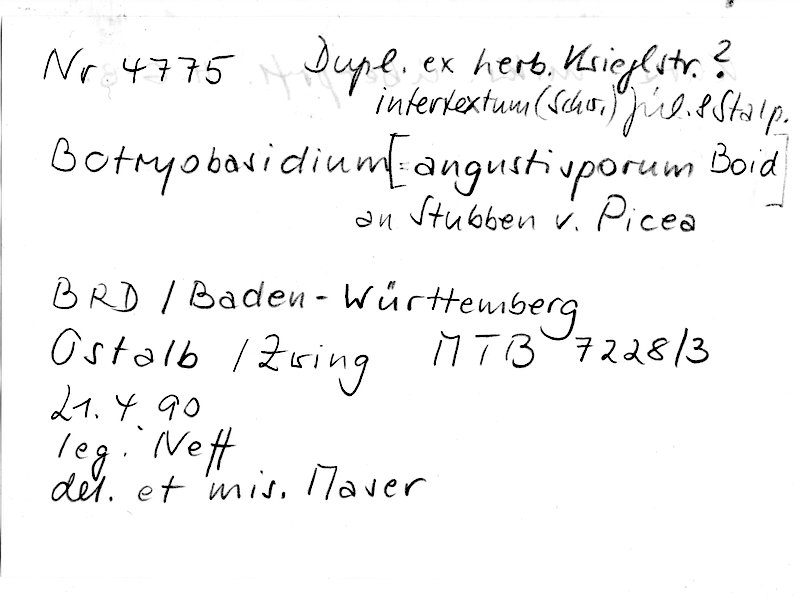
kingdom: Plantae
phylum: Tracheophyta
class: Pinopsida
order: Pinales
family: Pinaceae
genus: Picea
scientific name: Picea
